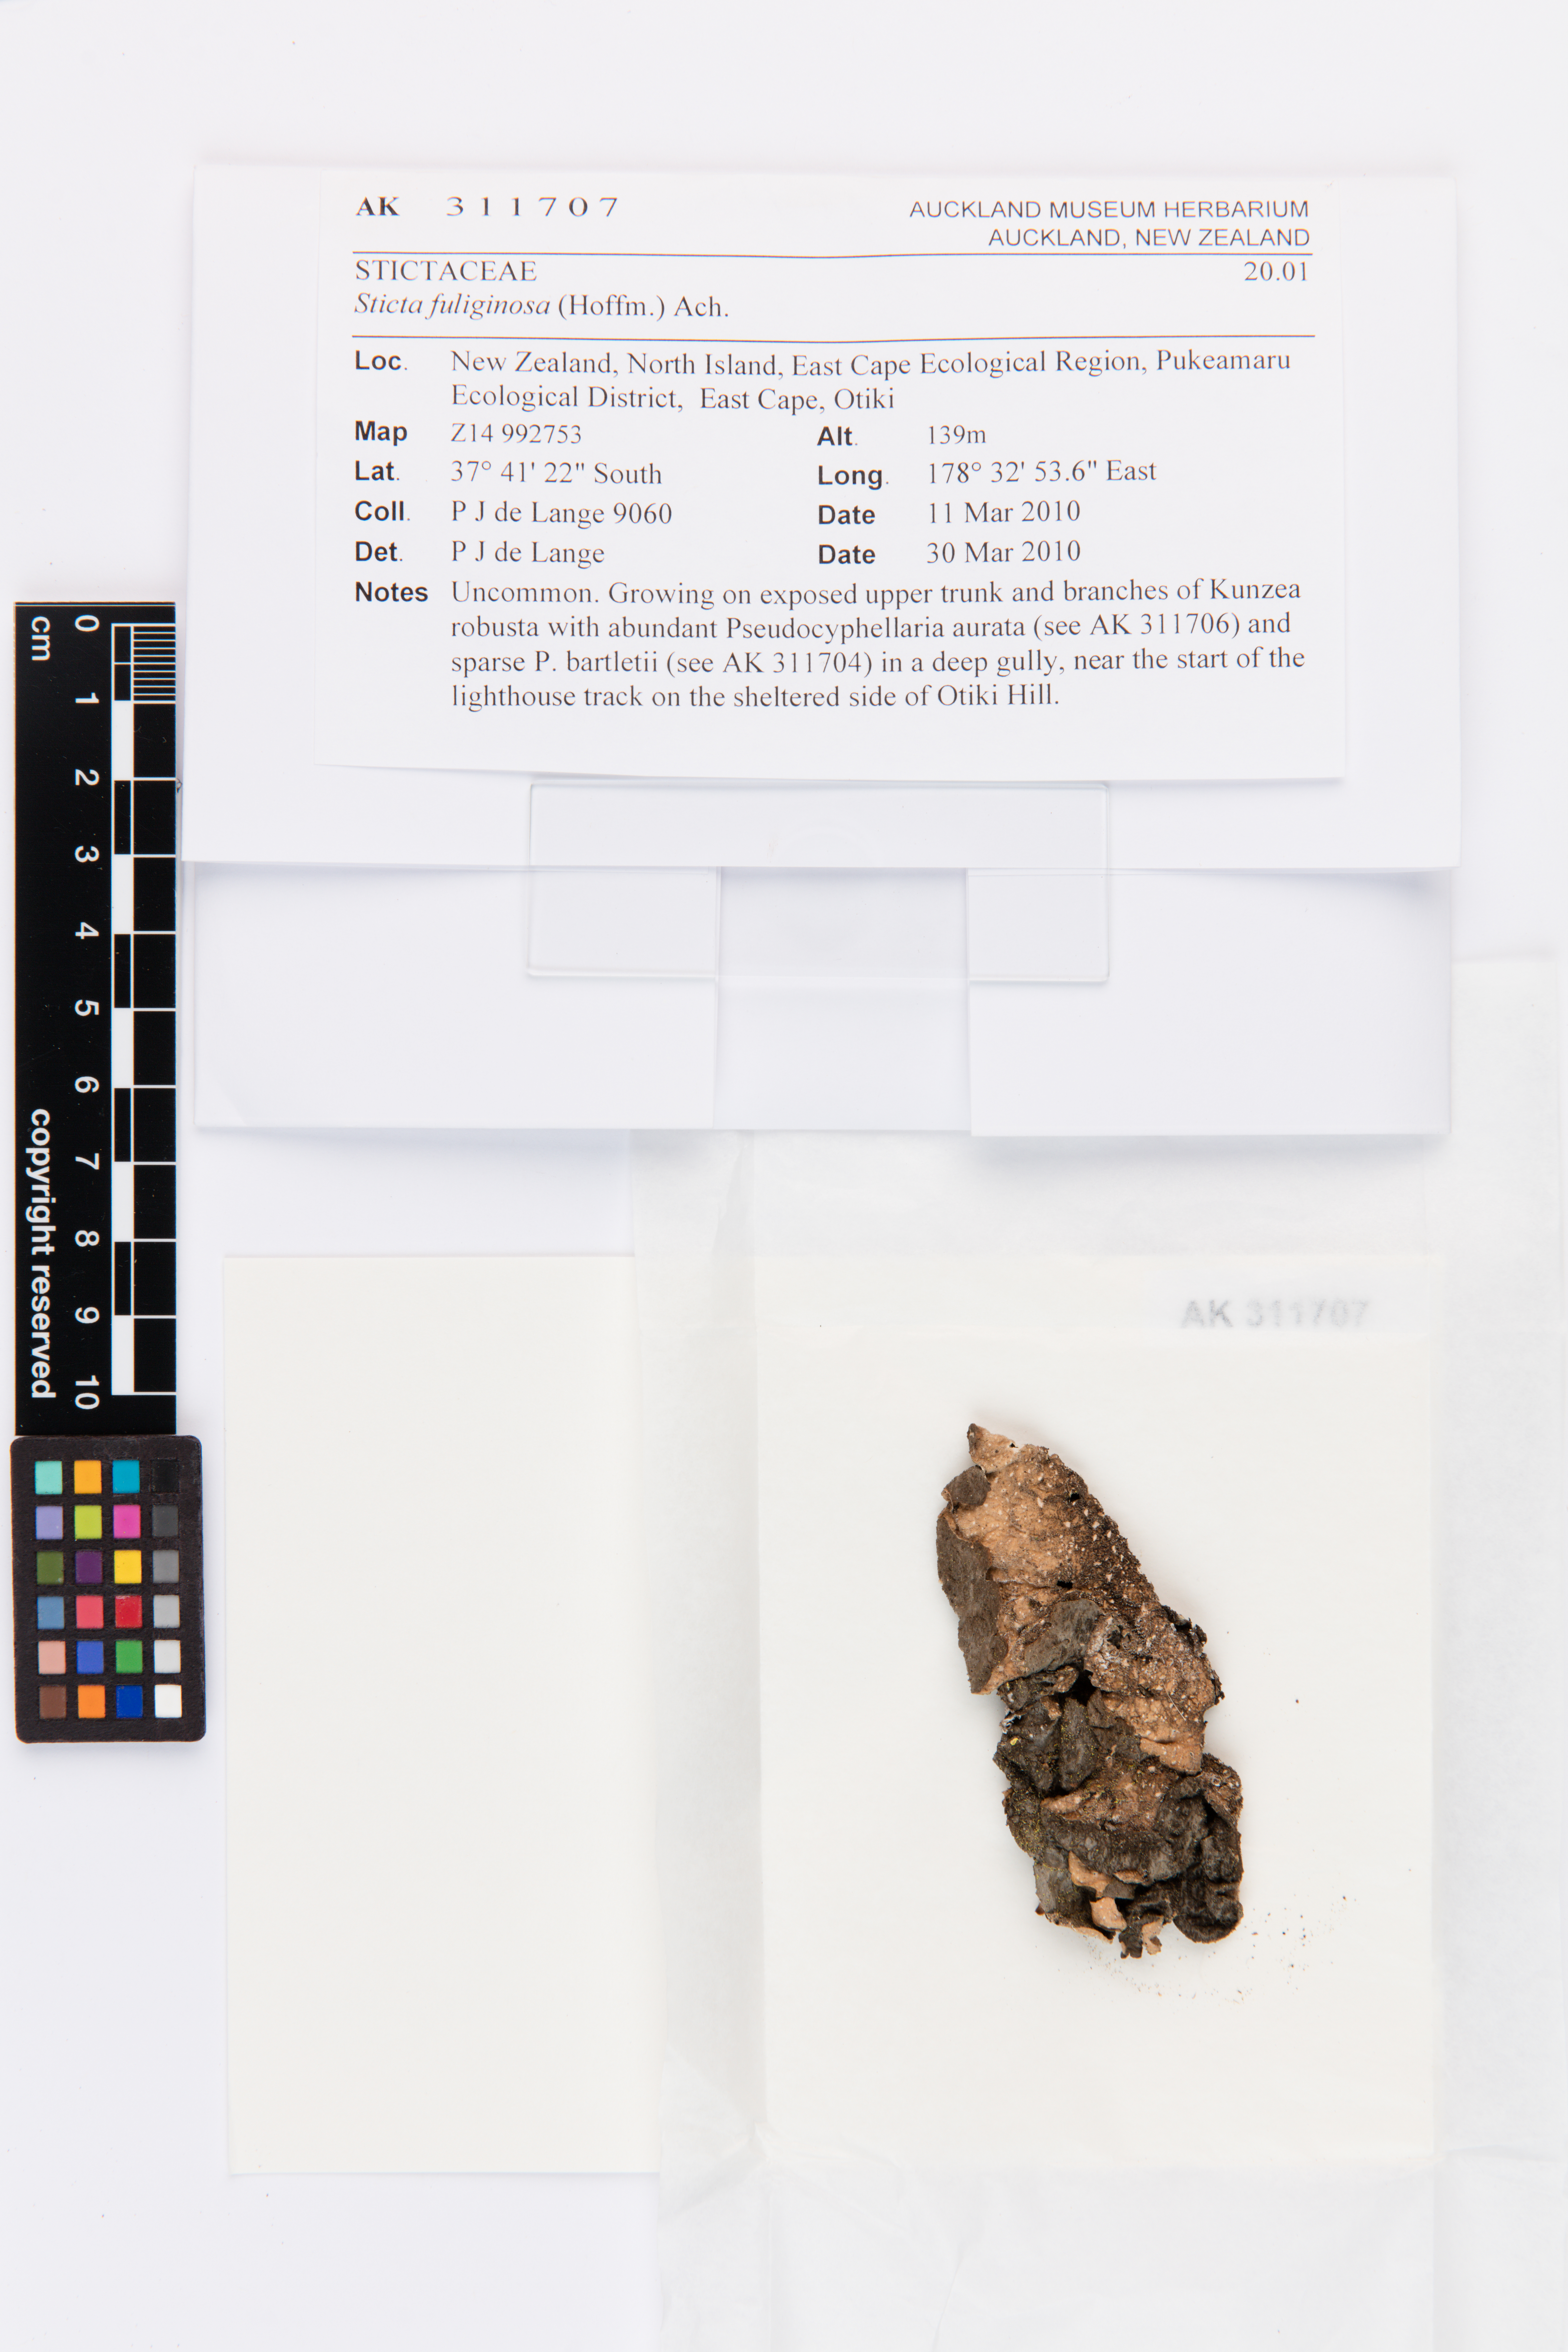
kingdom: Fungi
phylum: Ascomycota
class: Lecanoromycetes
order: Peltigerales
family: Lobariaceae
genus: Sticta
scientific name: Sticta fuliginosa
